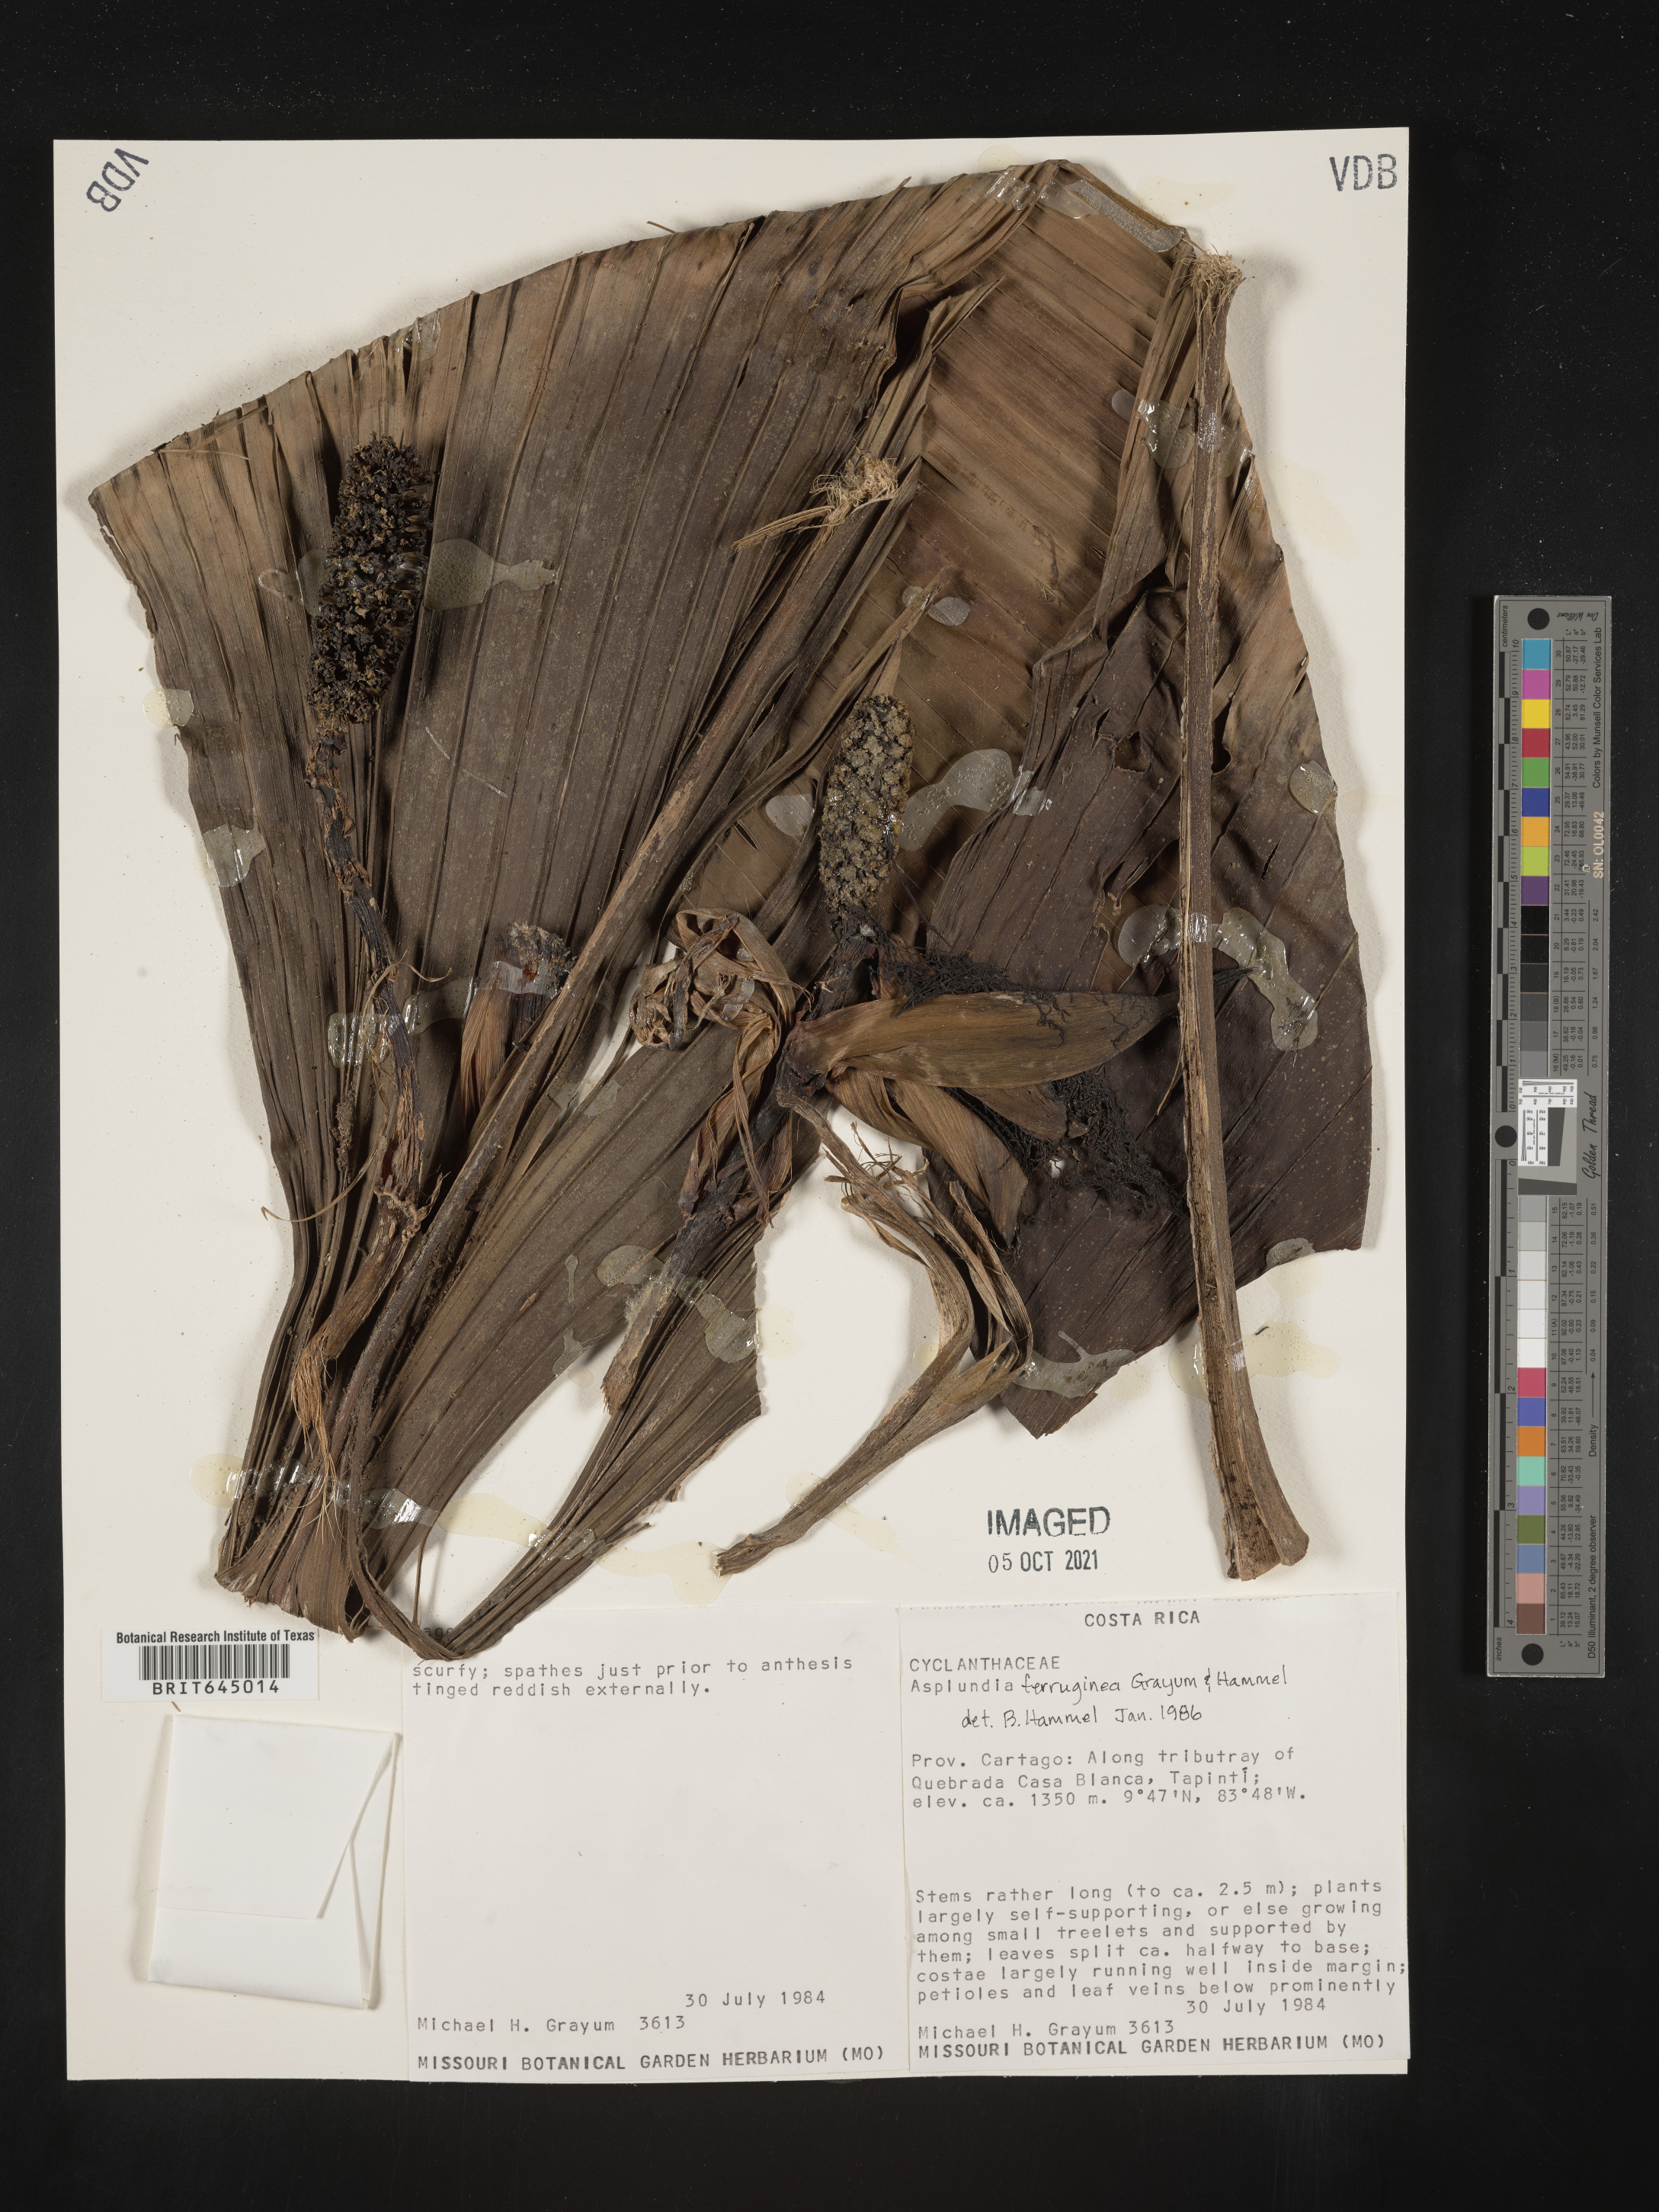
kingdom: Plantae
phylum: Tracheophyta
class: Liliopsida
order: Pandanales
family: Cyclanthaceae
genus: Asplundia
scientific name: Asplundia ferruginea
